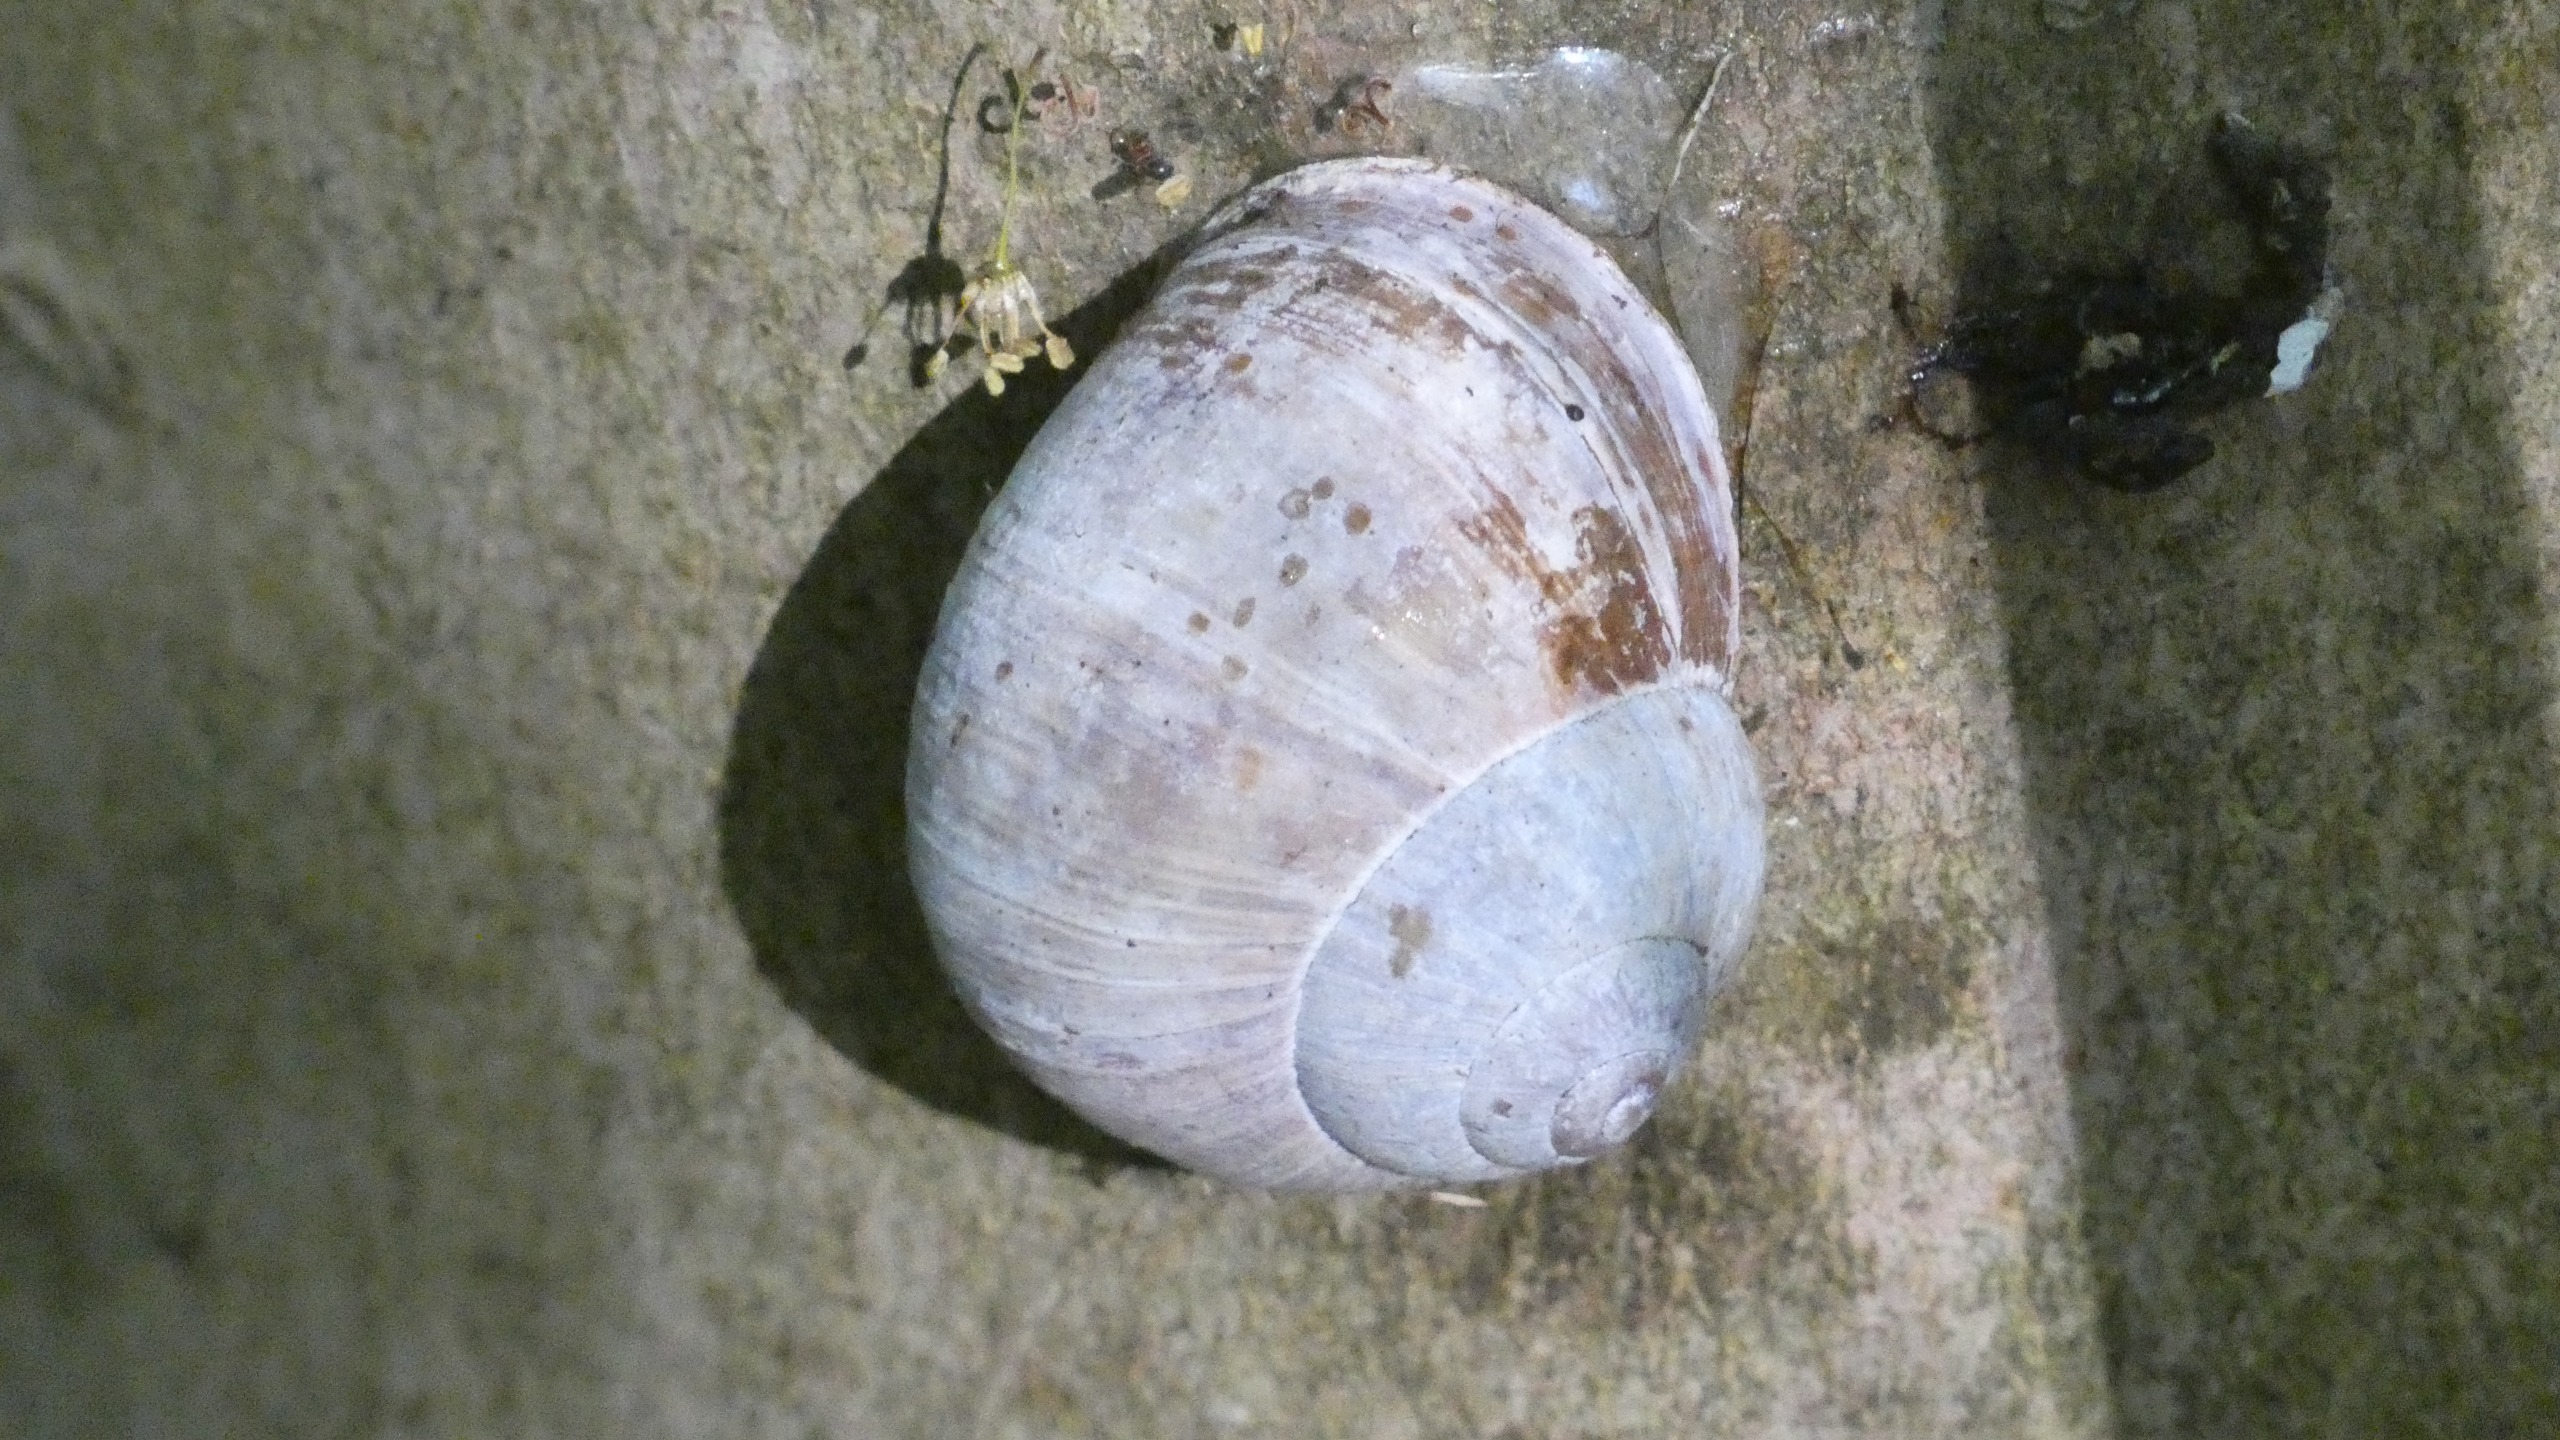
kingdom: Animalia
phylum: Mollusca
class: Gastropoda
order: Stylommatophora
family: Helicidae
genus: Helix
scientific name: Helix pomatia
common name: Vinbjergsnegl
